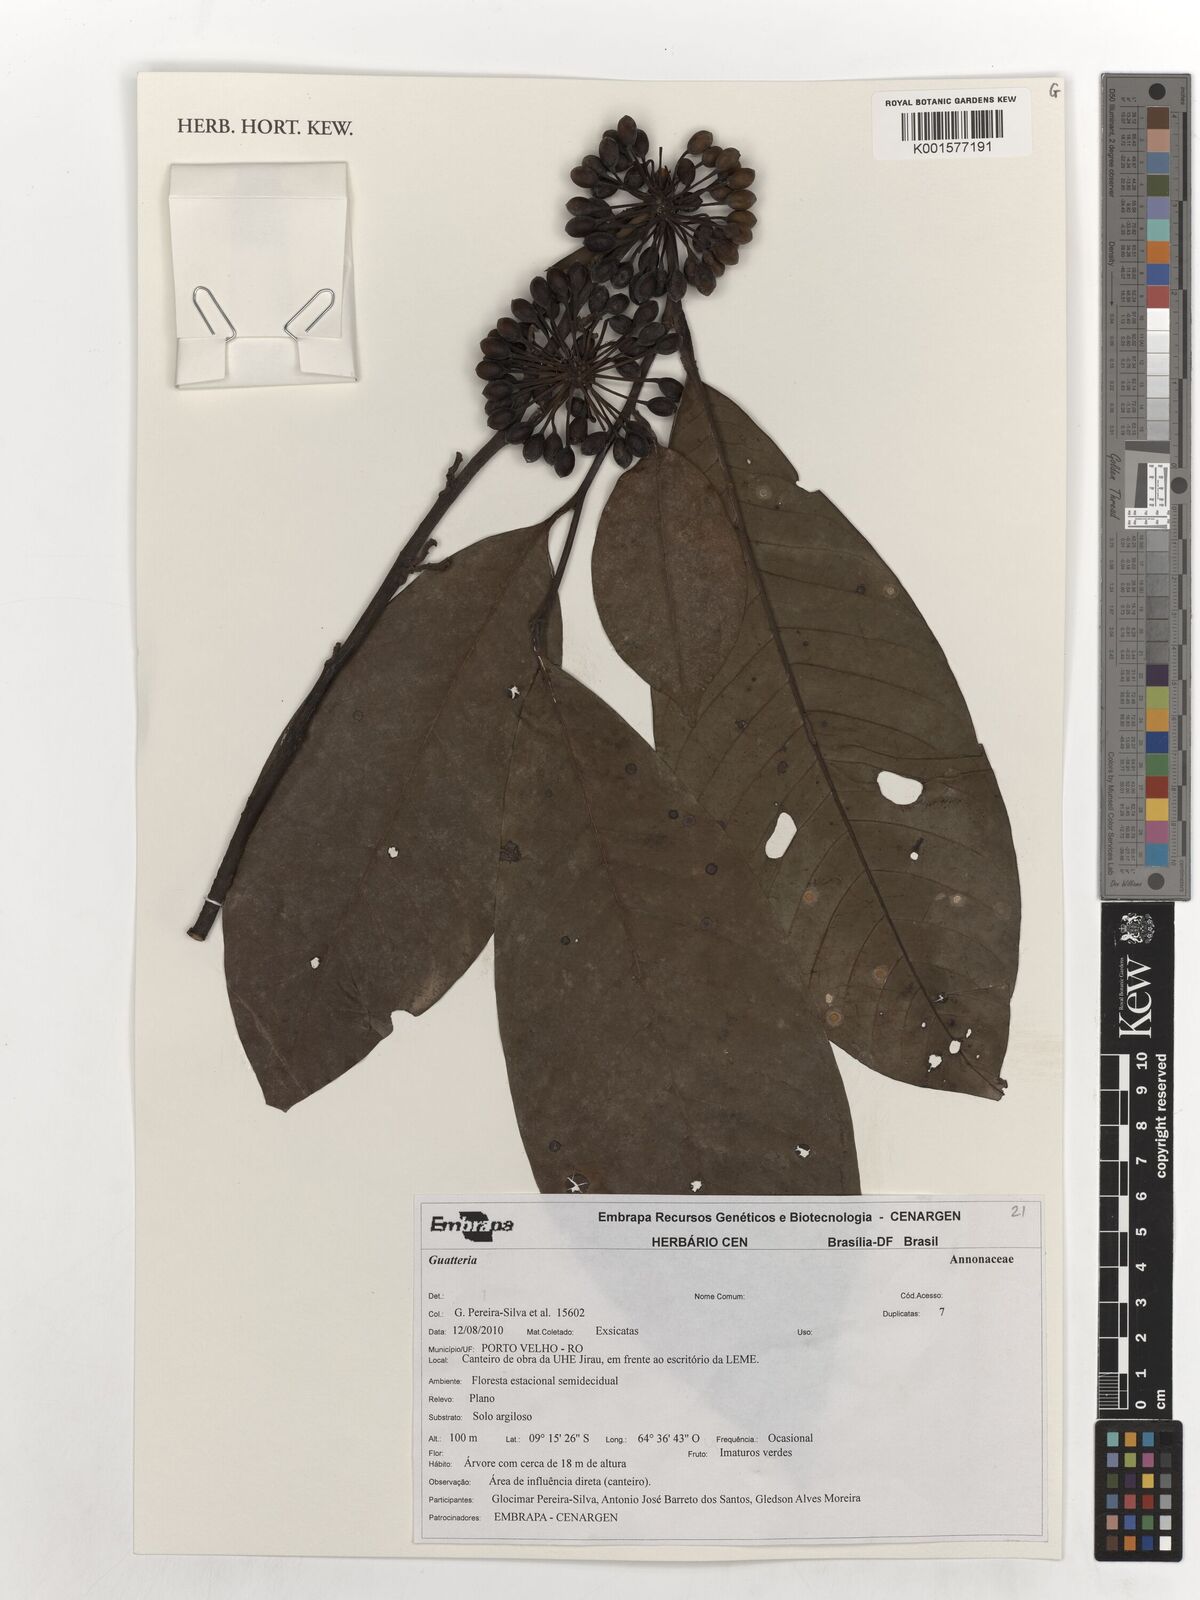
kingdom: Plantae
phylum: Tracheophyta
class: Magnoliopsida
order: Magnoliales
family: Annonaceae
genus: Guatteria
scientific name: Guatteria
